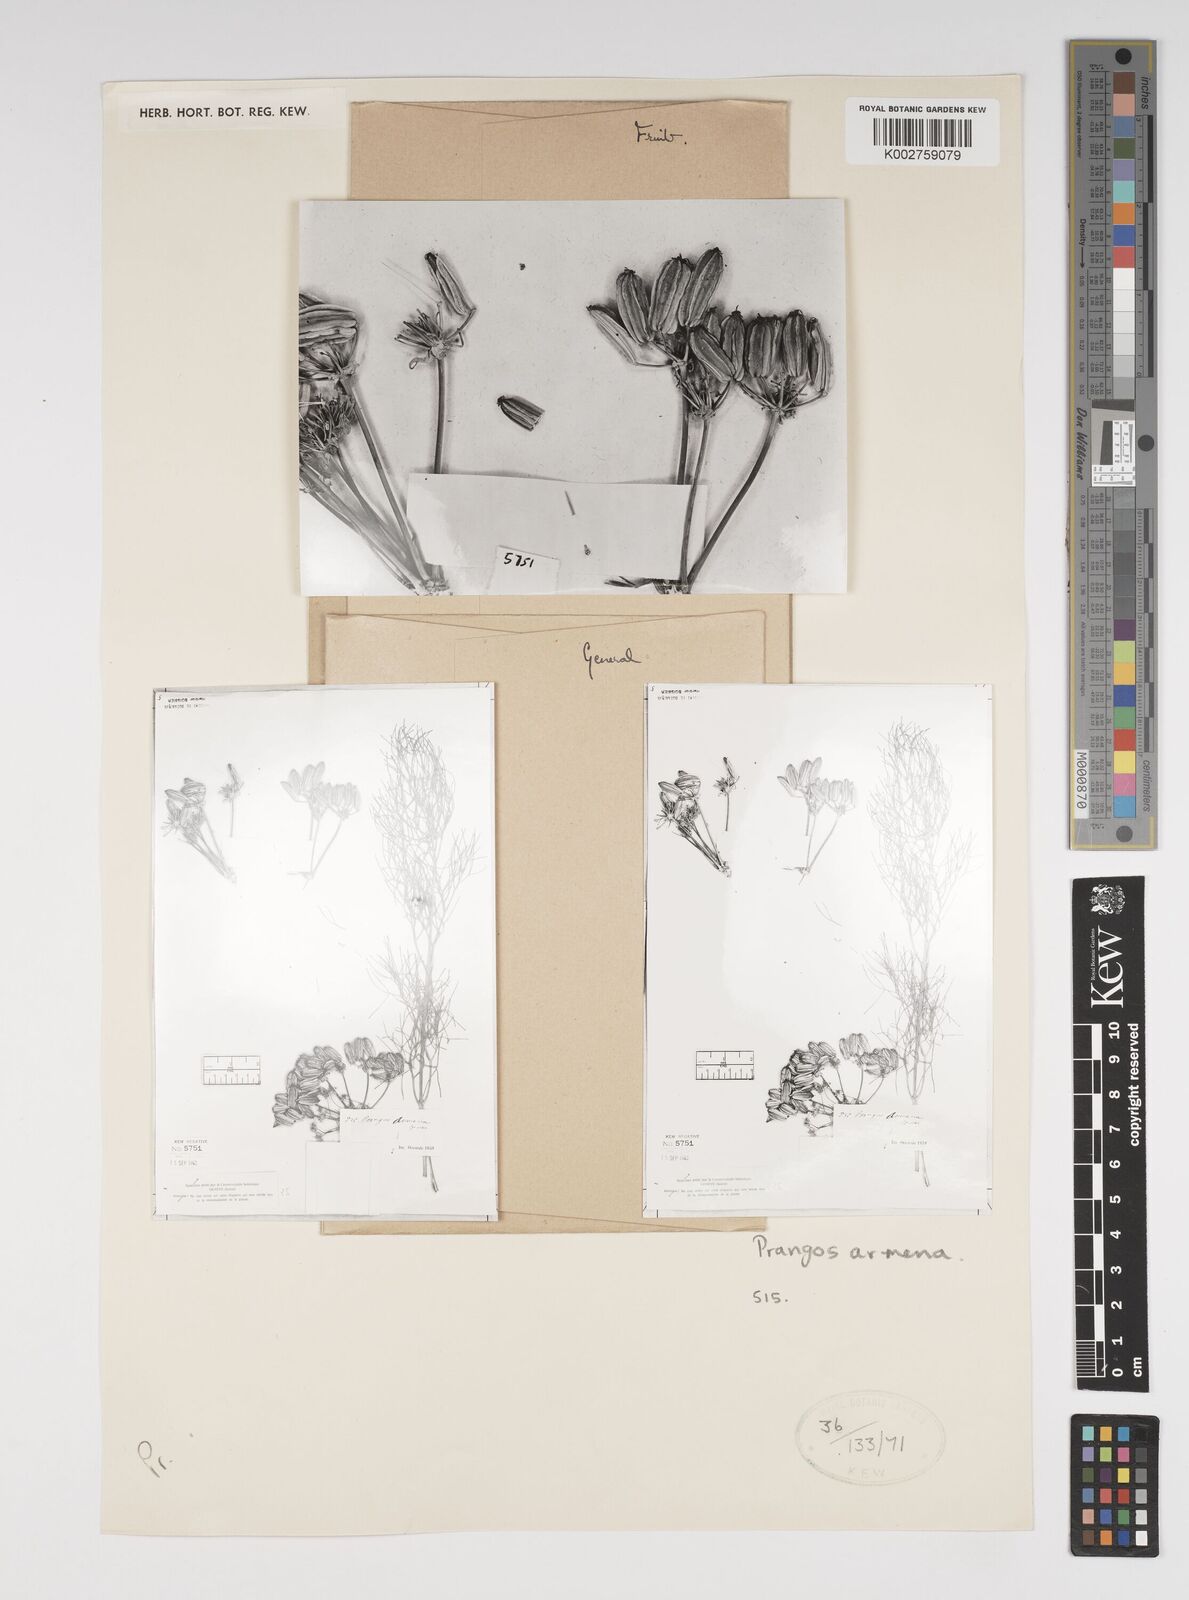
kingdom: Plantae
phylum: Tracheophyta
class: Magnoliopsida
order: Apiales
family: Apiaceae
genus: Prangos
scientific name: Prangos platychlaena
